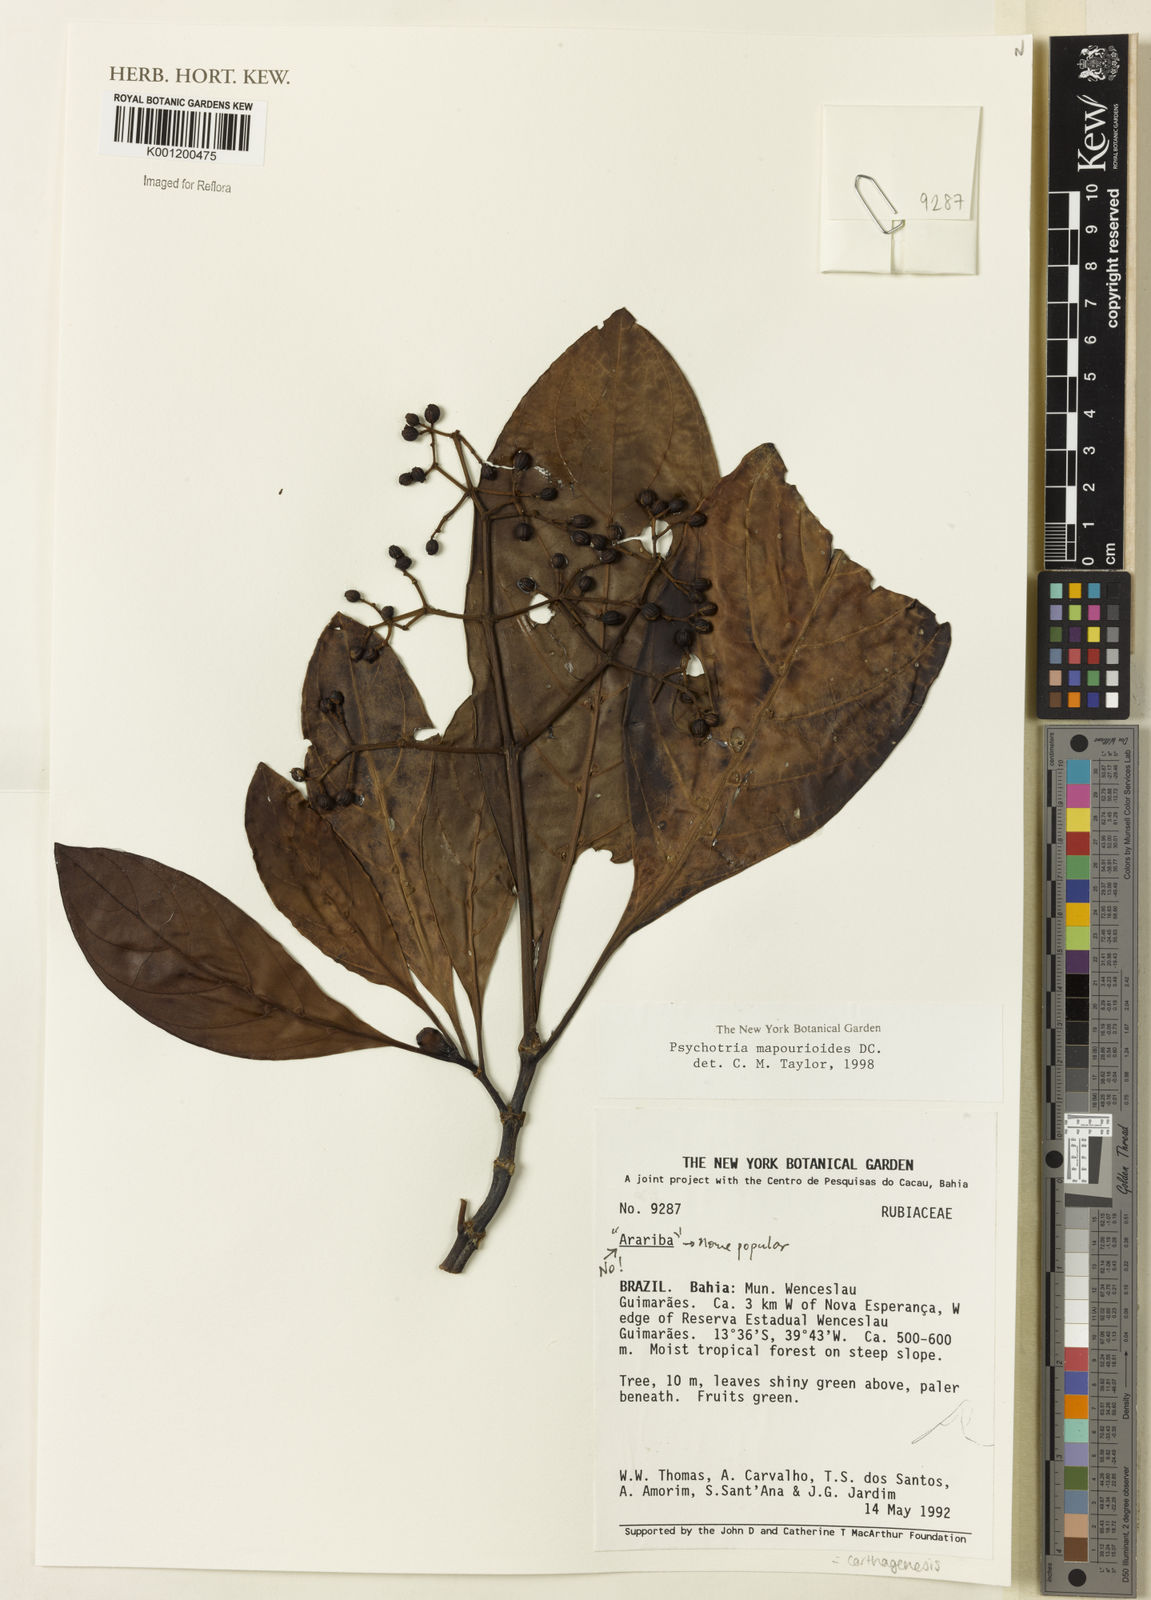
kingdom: Plantae
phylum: Tracheophyta
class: Magnoliopsida
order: Gentianales
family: Rubiaceae
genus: Psychotria
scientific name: Psychotria carthagenensis
